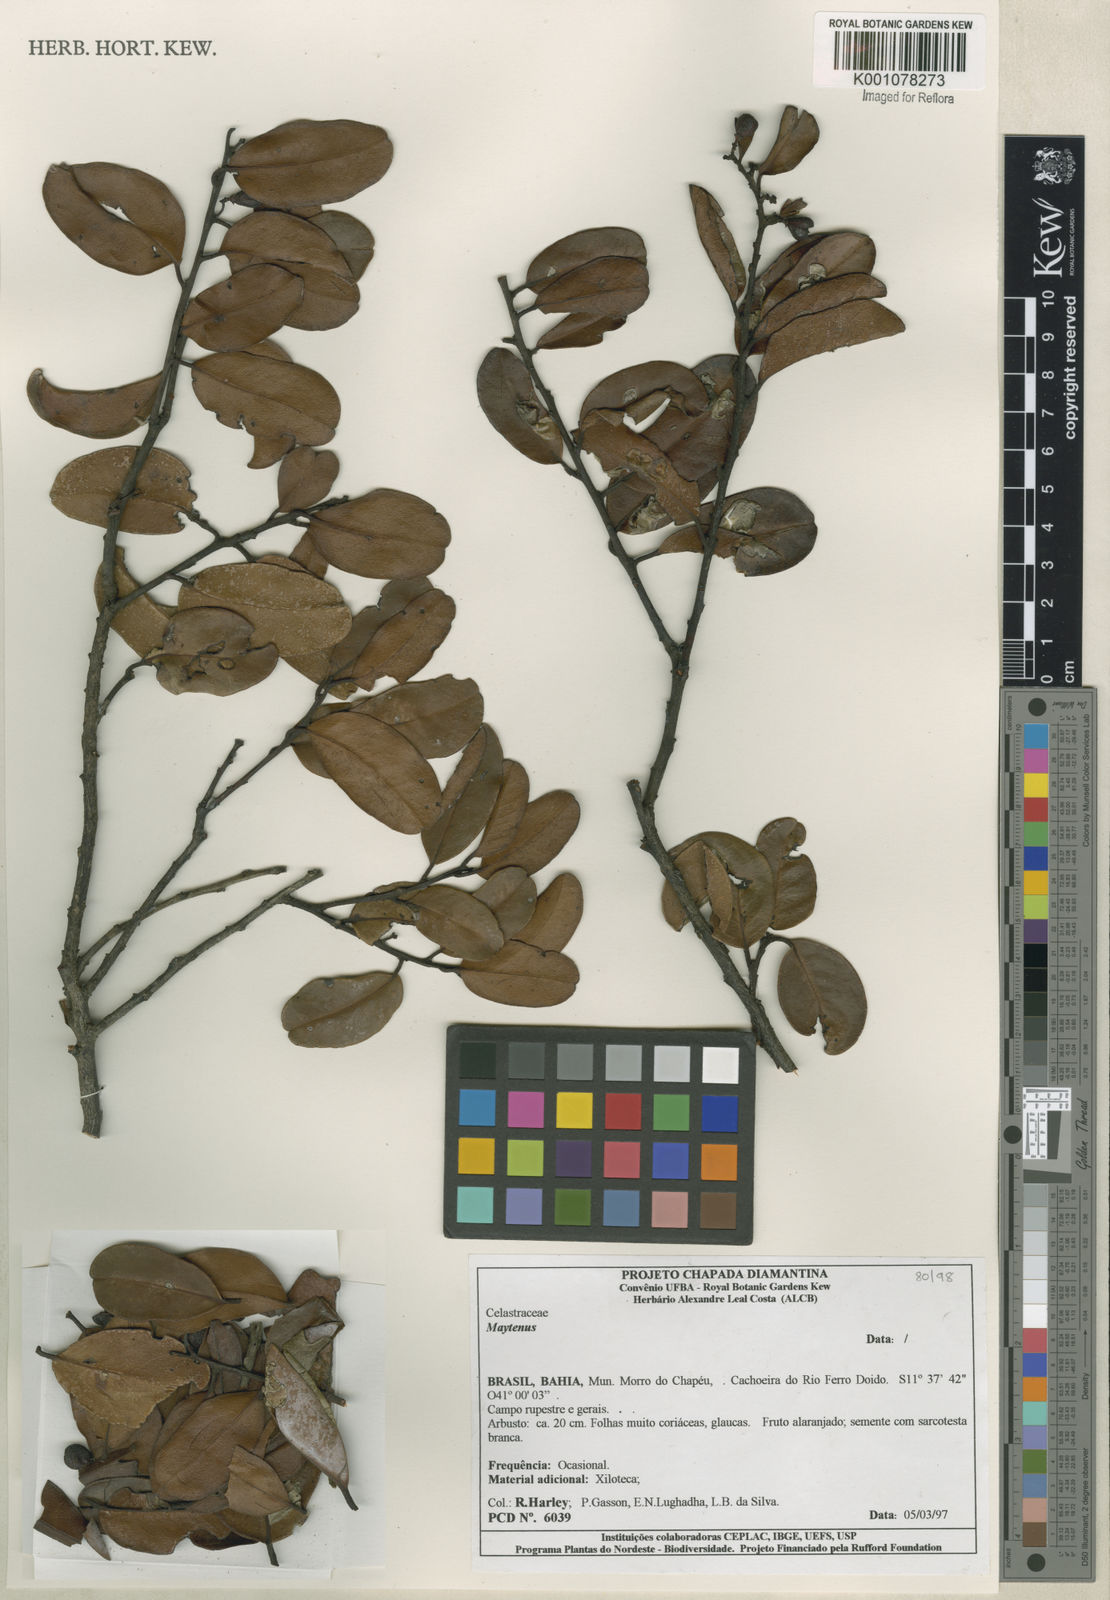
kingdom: Plantae
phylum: Tracheophyta
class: Magnoliopsida
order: Celastrales
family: Celastraceae
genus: Maytenus
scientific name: Maytenus
